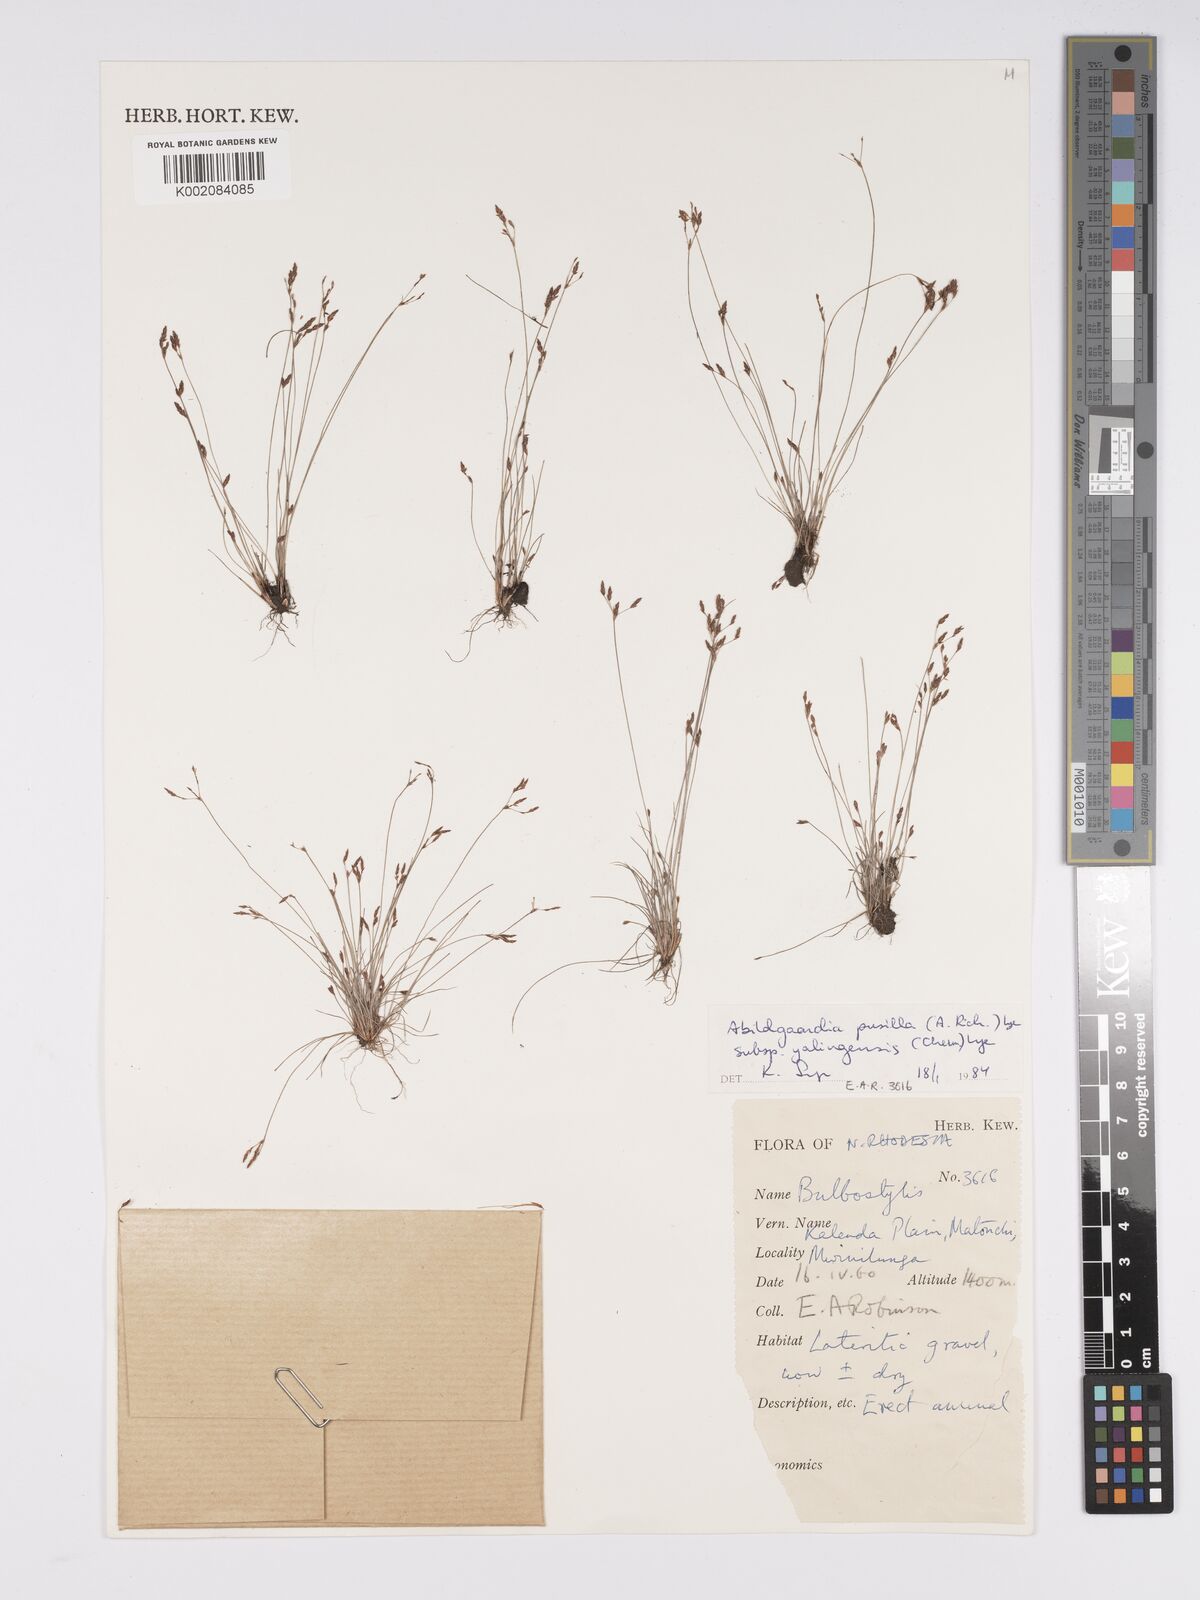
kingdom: Plantae
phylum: Tracheophyta
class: Liliopsida
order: Poales
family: Cyperaceae
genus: Bulbostylis
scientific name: Bulbostylis pusilla
